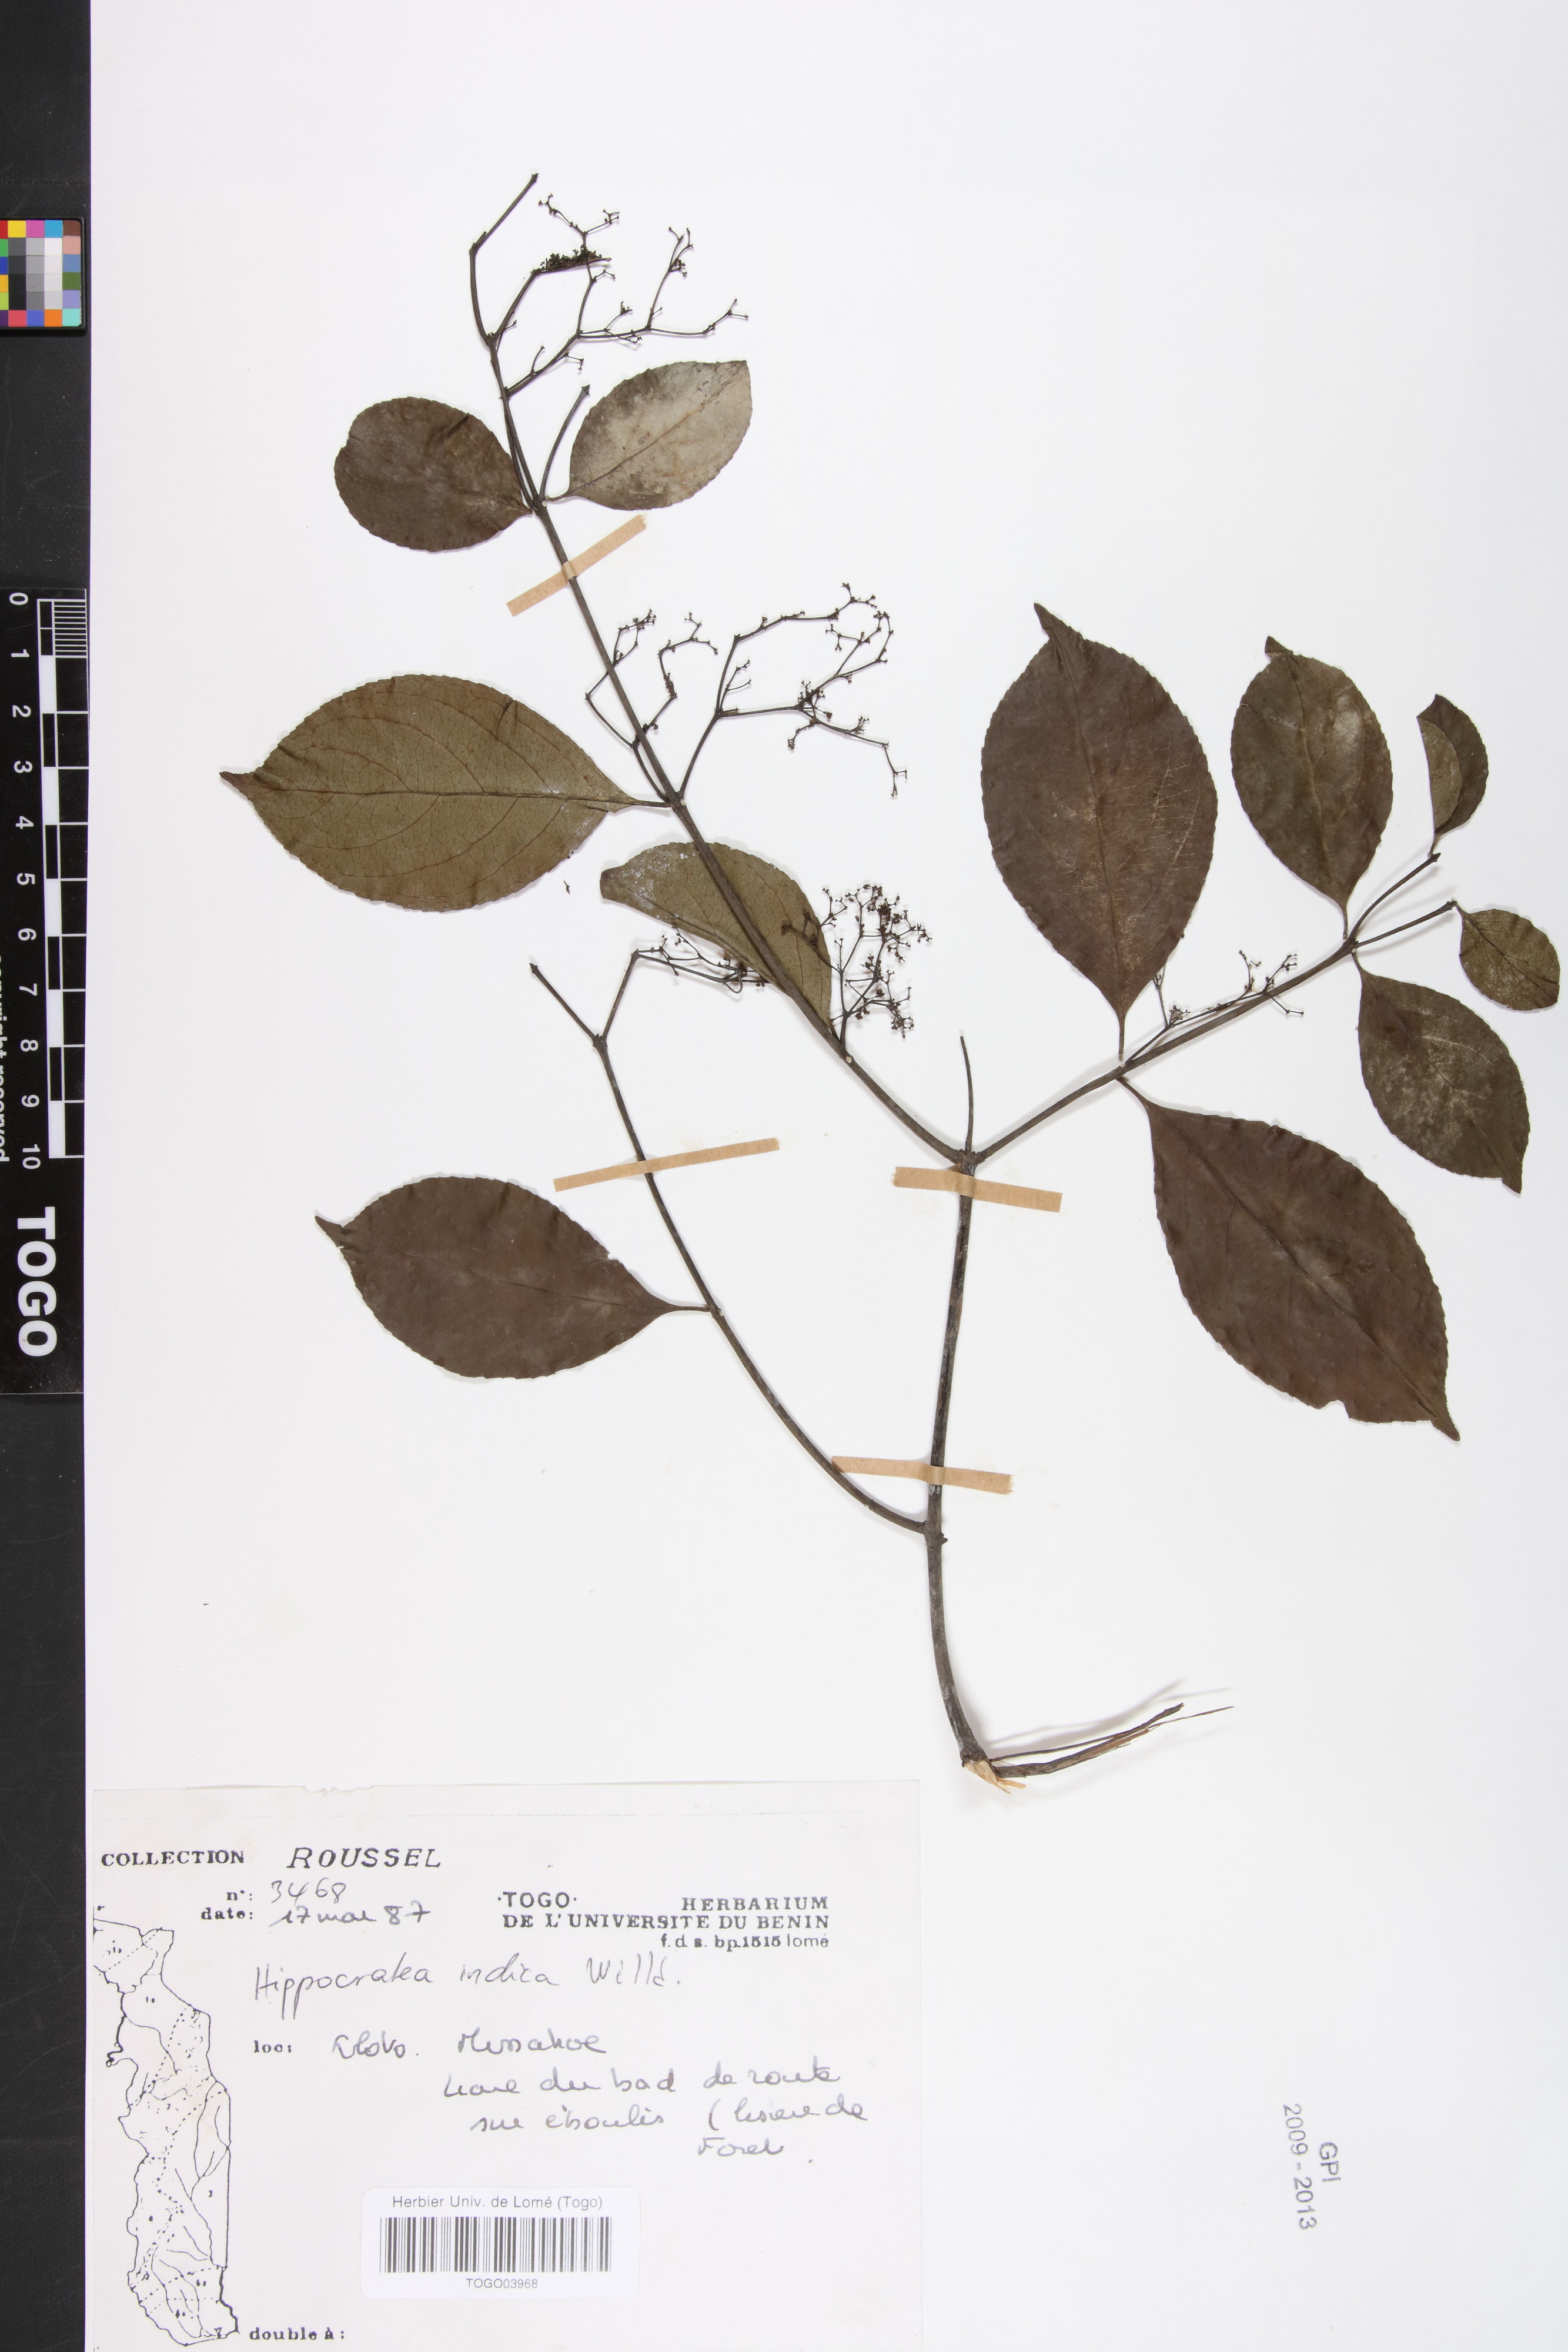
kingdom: Plantae
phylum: Tracheophyta
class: Magnoliopsida
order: Celastrales
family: Celastraceae
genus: Reissantia
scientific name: Reissantia indica
